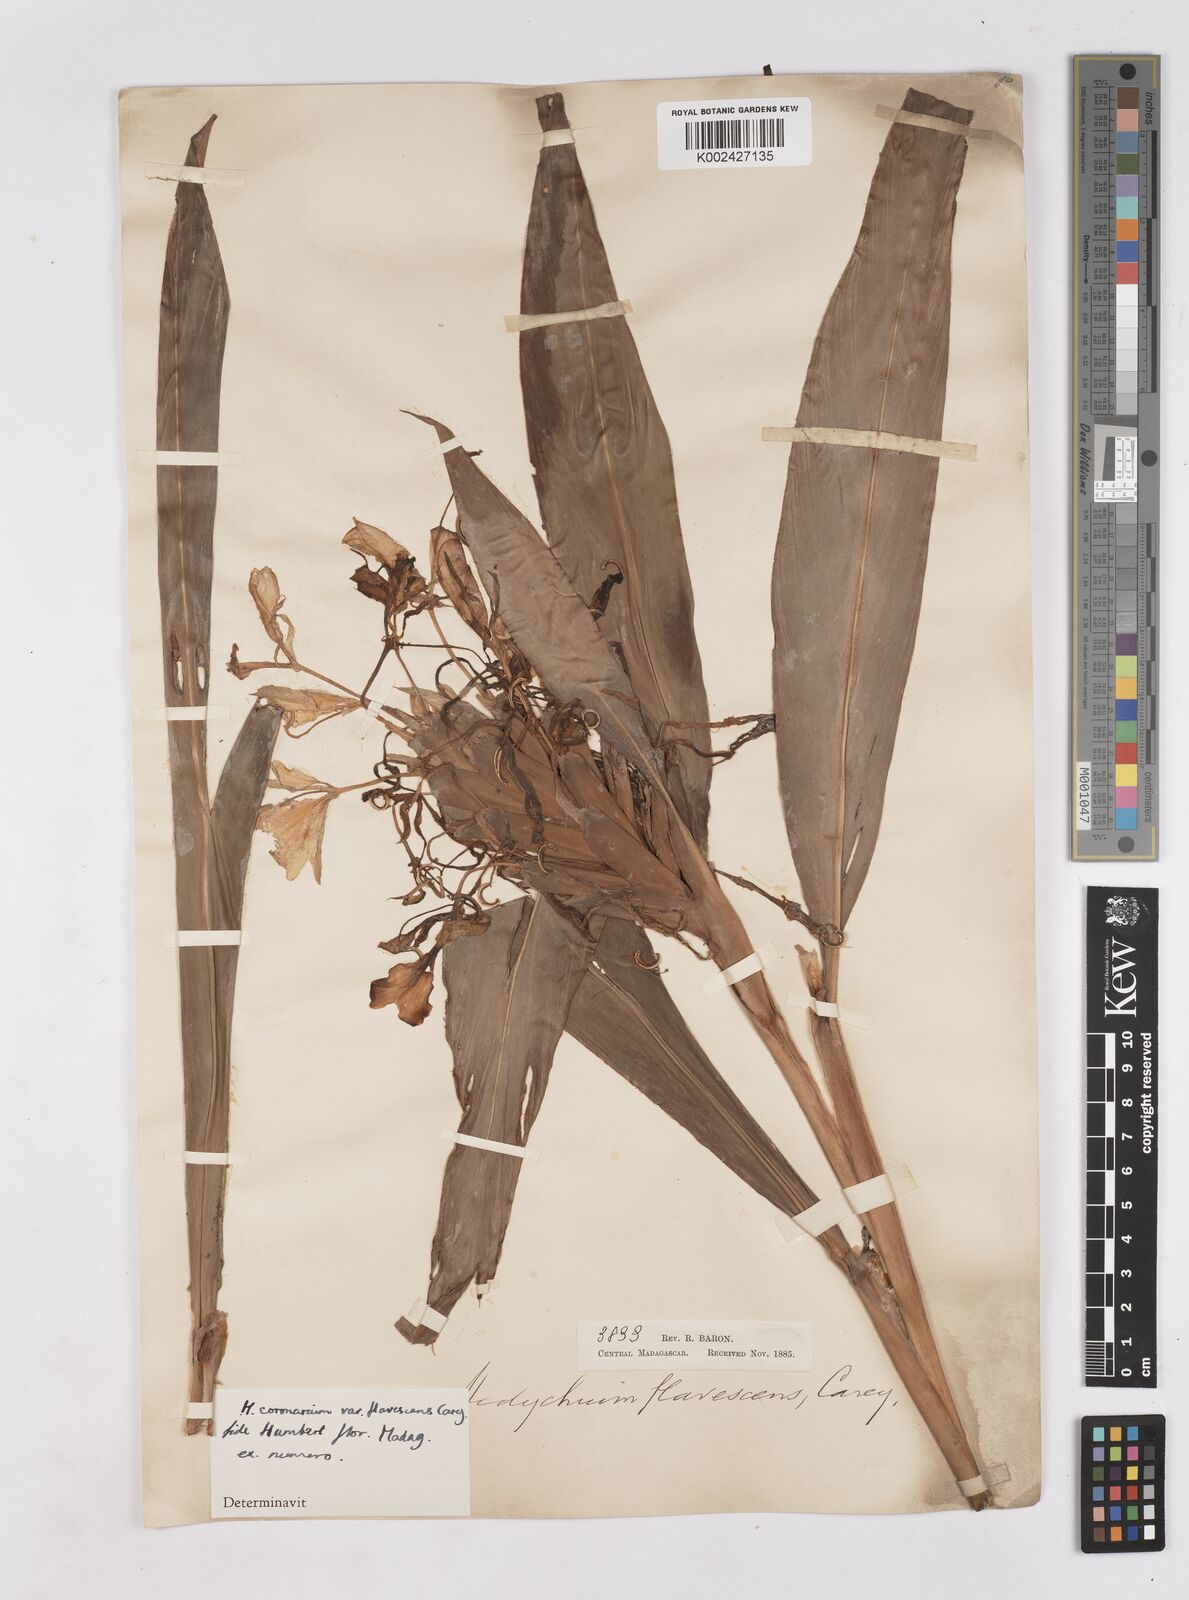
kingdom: Plantae
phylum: Tracheophyta
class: Liliopsida
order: Zingiberales
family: Zingiberaceae
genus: Hedychium
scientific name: Hedychium coronarium
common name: White garland-lily
